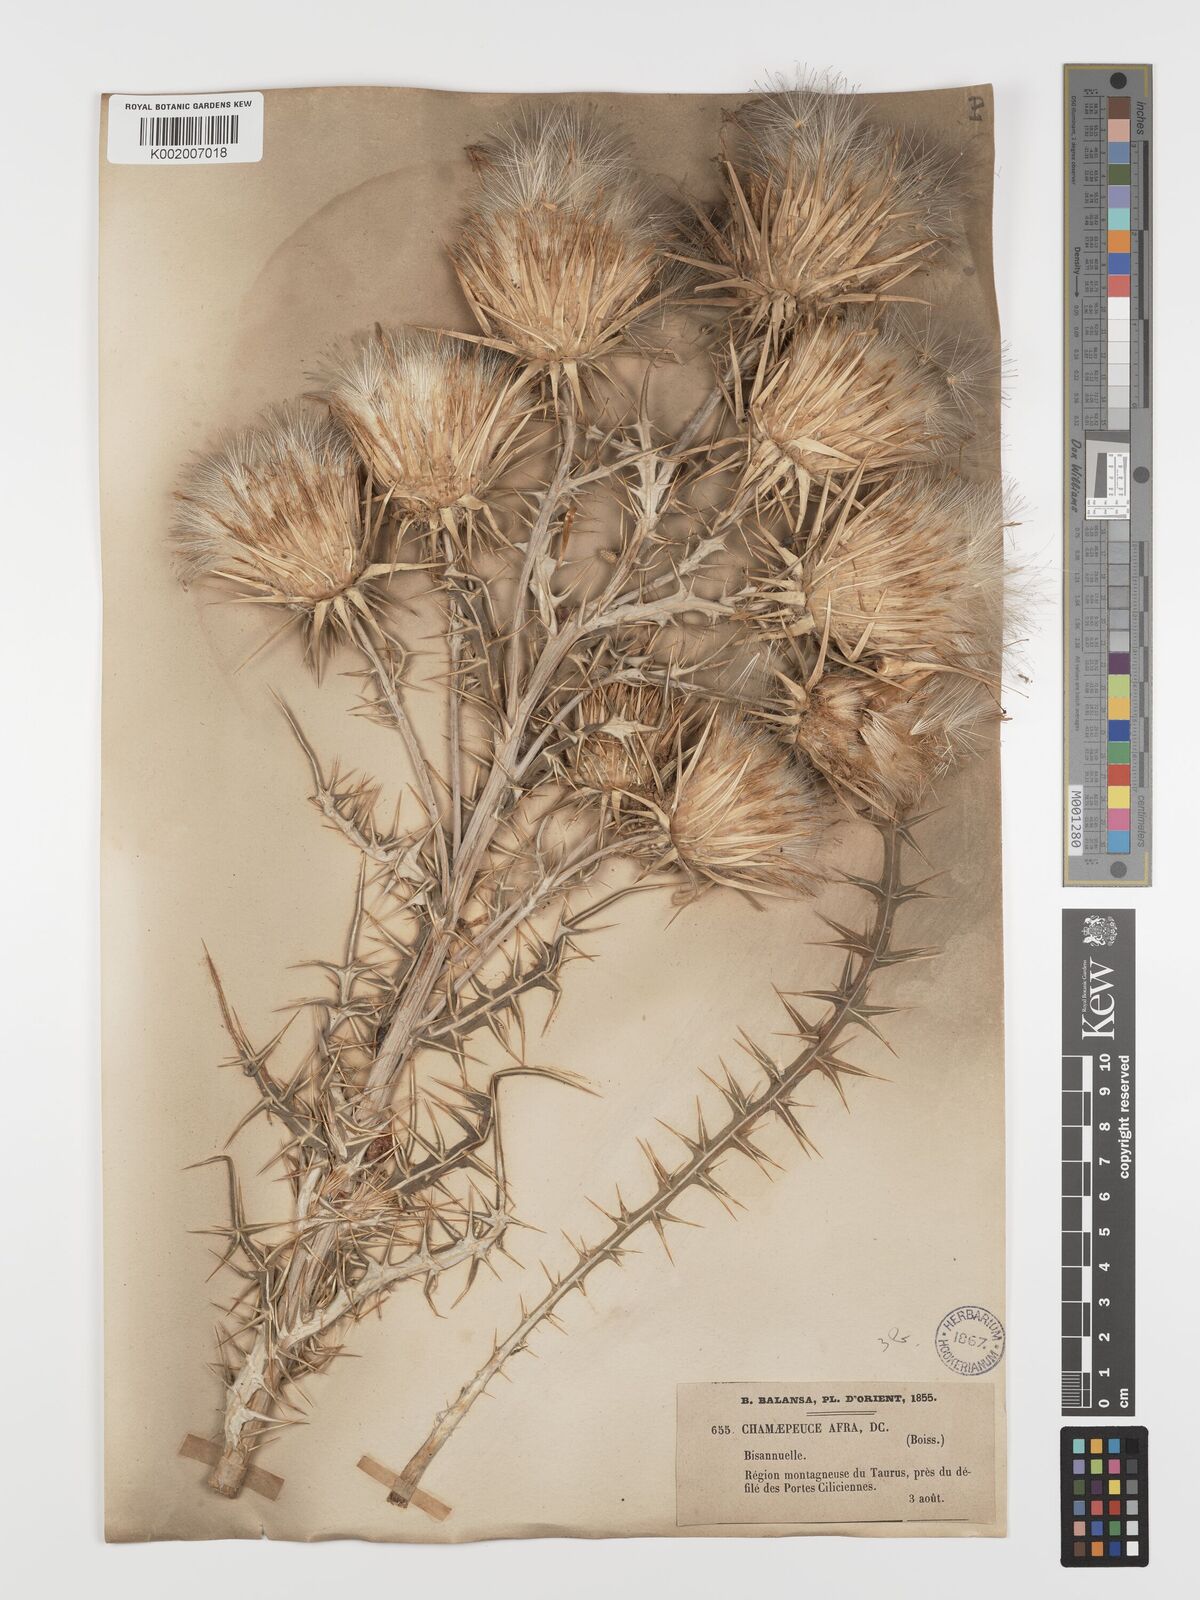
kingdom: Plantae
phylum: Tracheophyta
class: Magnoliopsida
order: Asterales
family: Asteraceae
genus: Ptilostemon
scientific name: Ptilostemon afer
